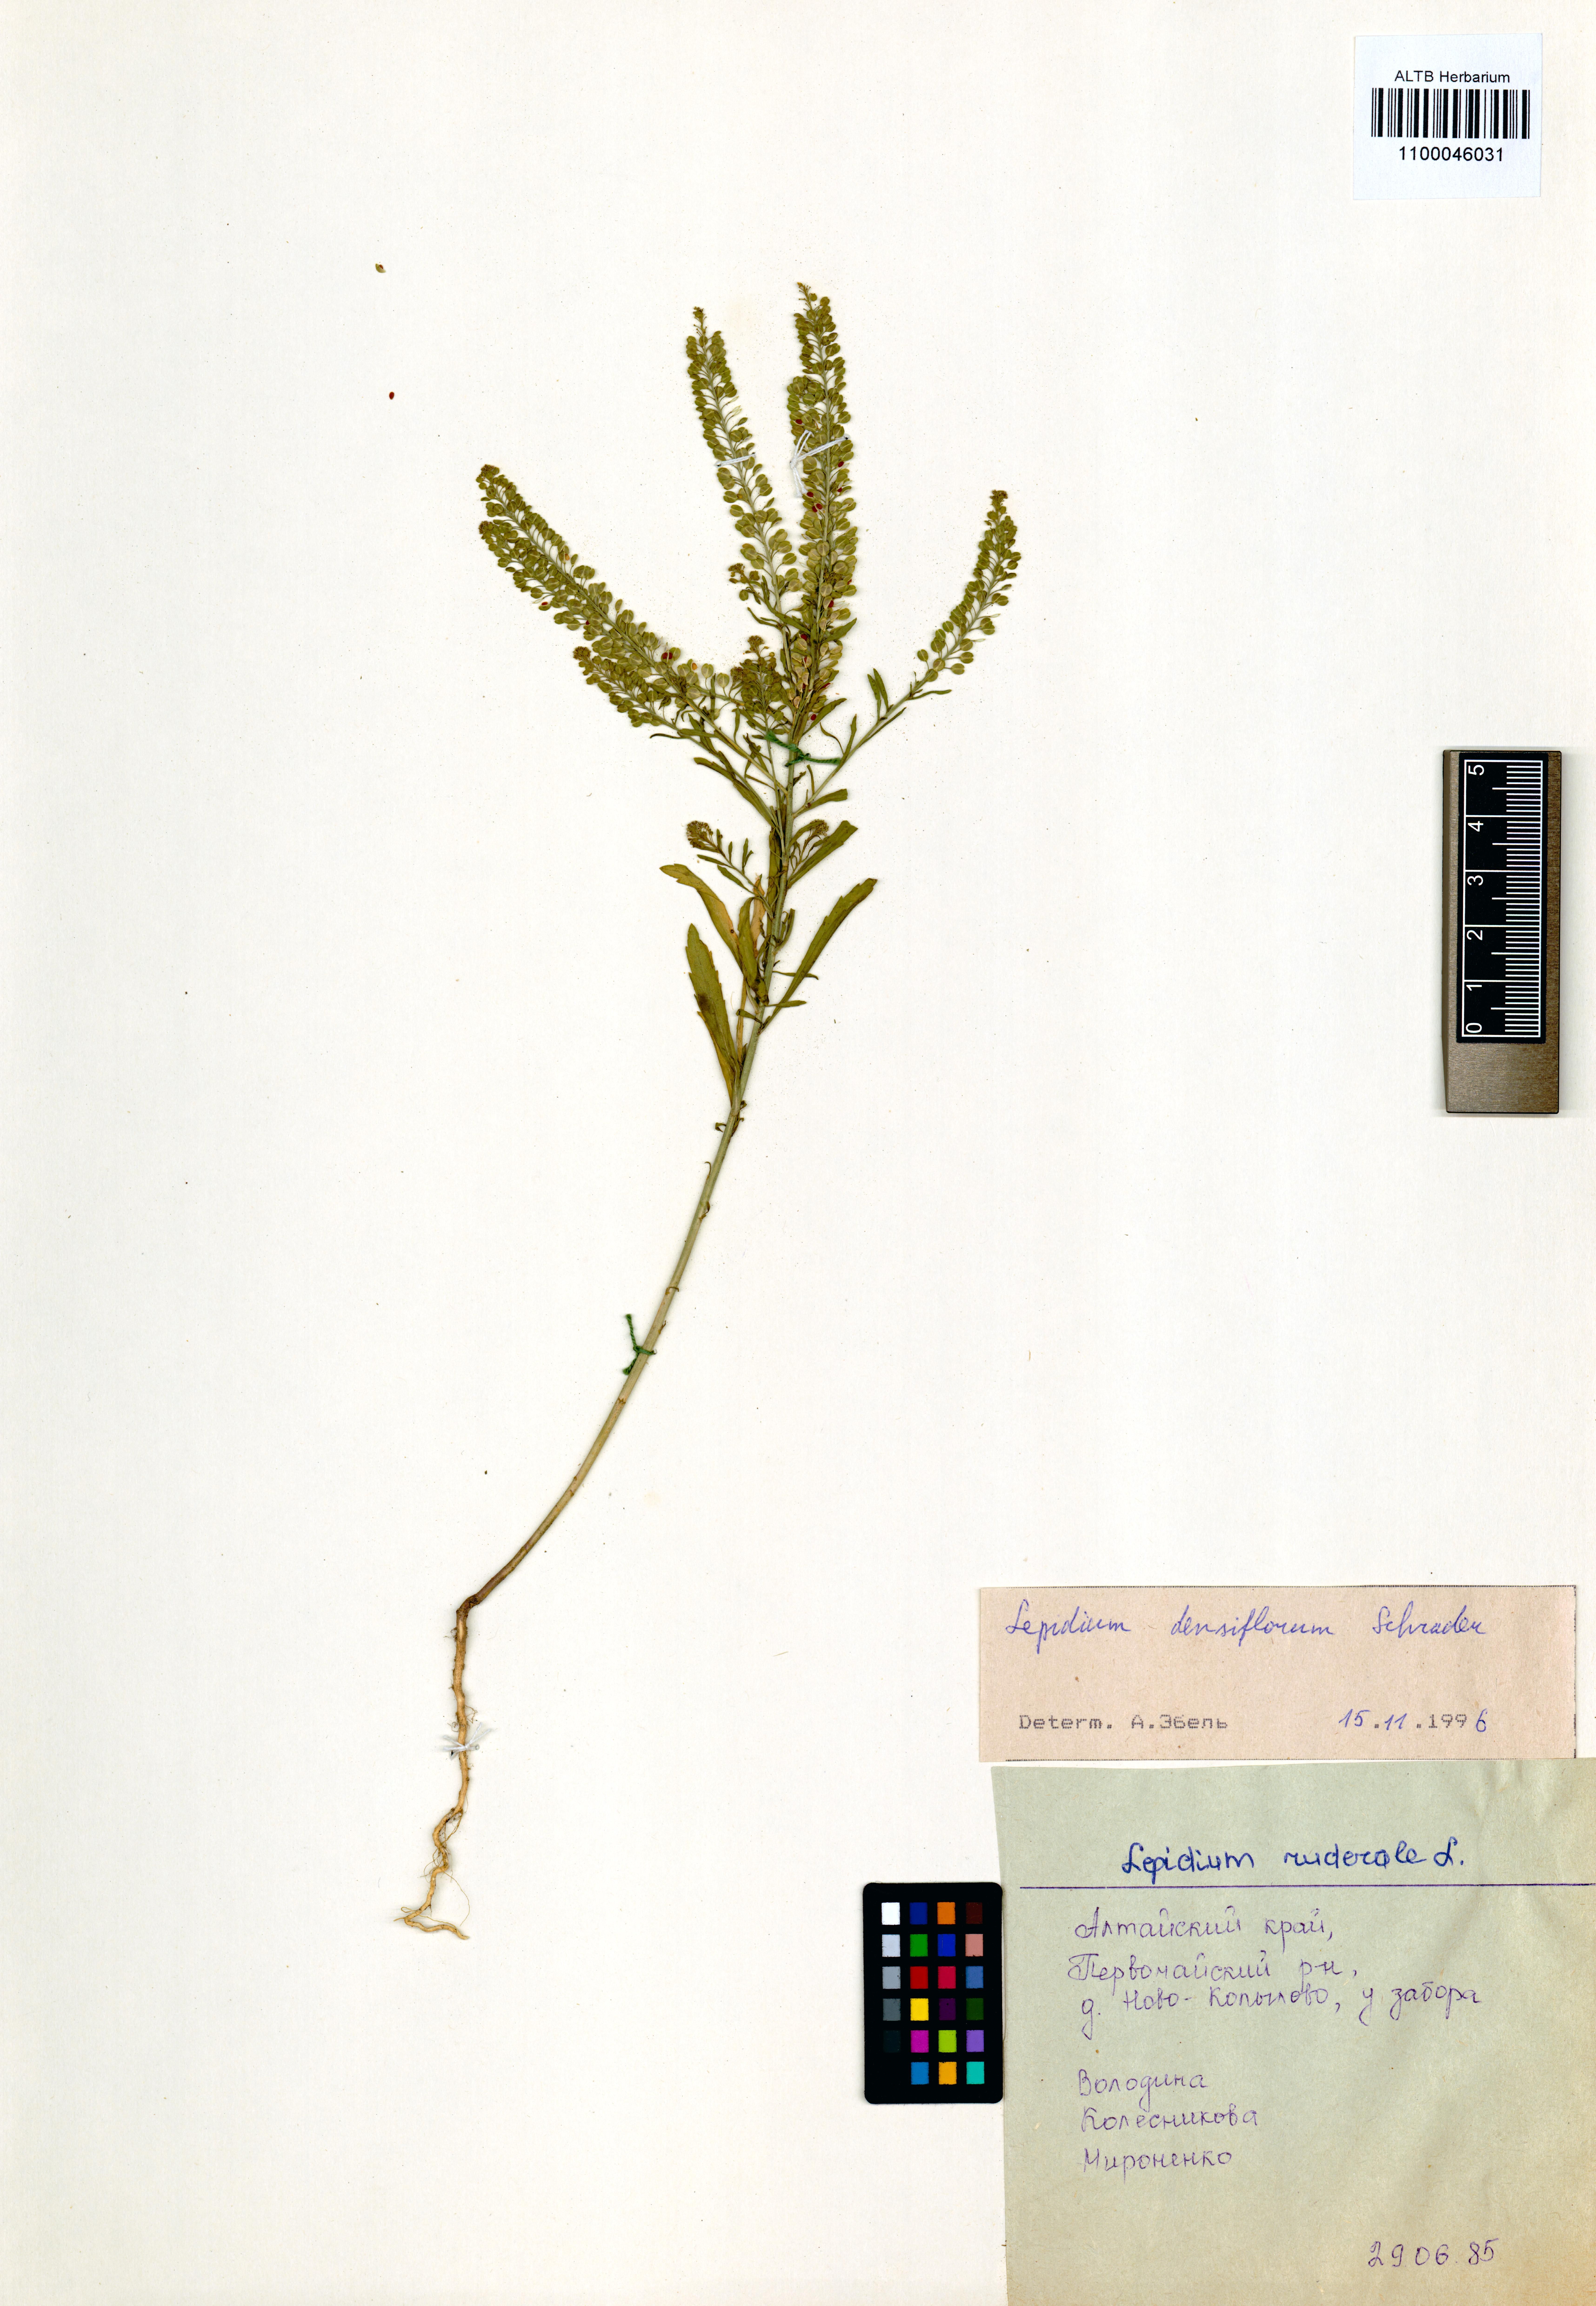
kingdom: Plantae
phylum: Tracheophyta
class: Magnoliopsida
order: Brassicales
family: Brassicaceae
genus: Lepidium
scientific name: Lepidium densiflorum
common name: Miner's pepperwort
